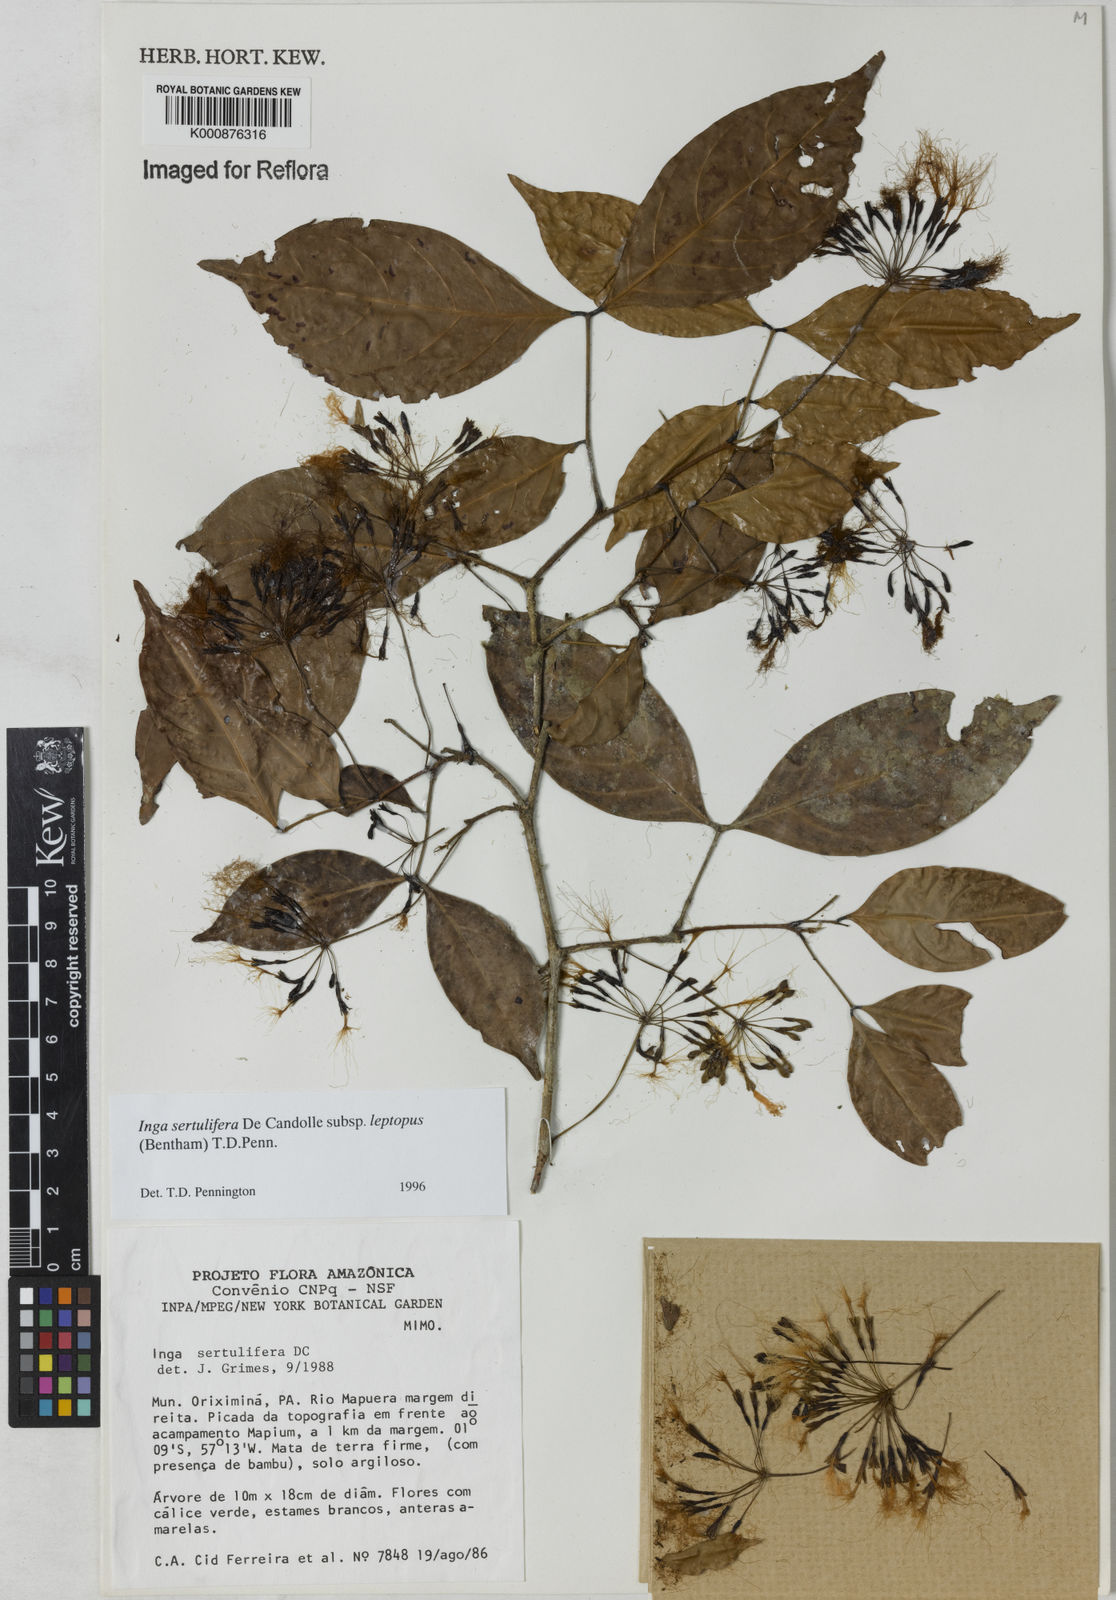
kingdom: Plantae
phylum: Tracheophyta
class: Magnoliopsida
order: Fabales
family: Fabaceae
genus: Inga
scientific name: Inga sertulifera
